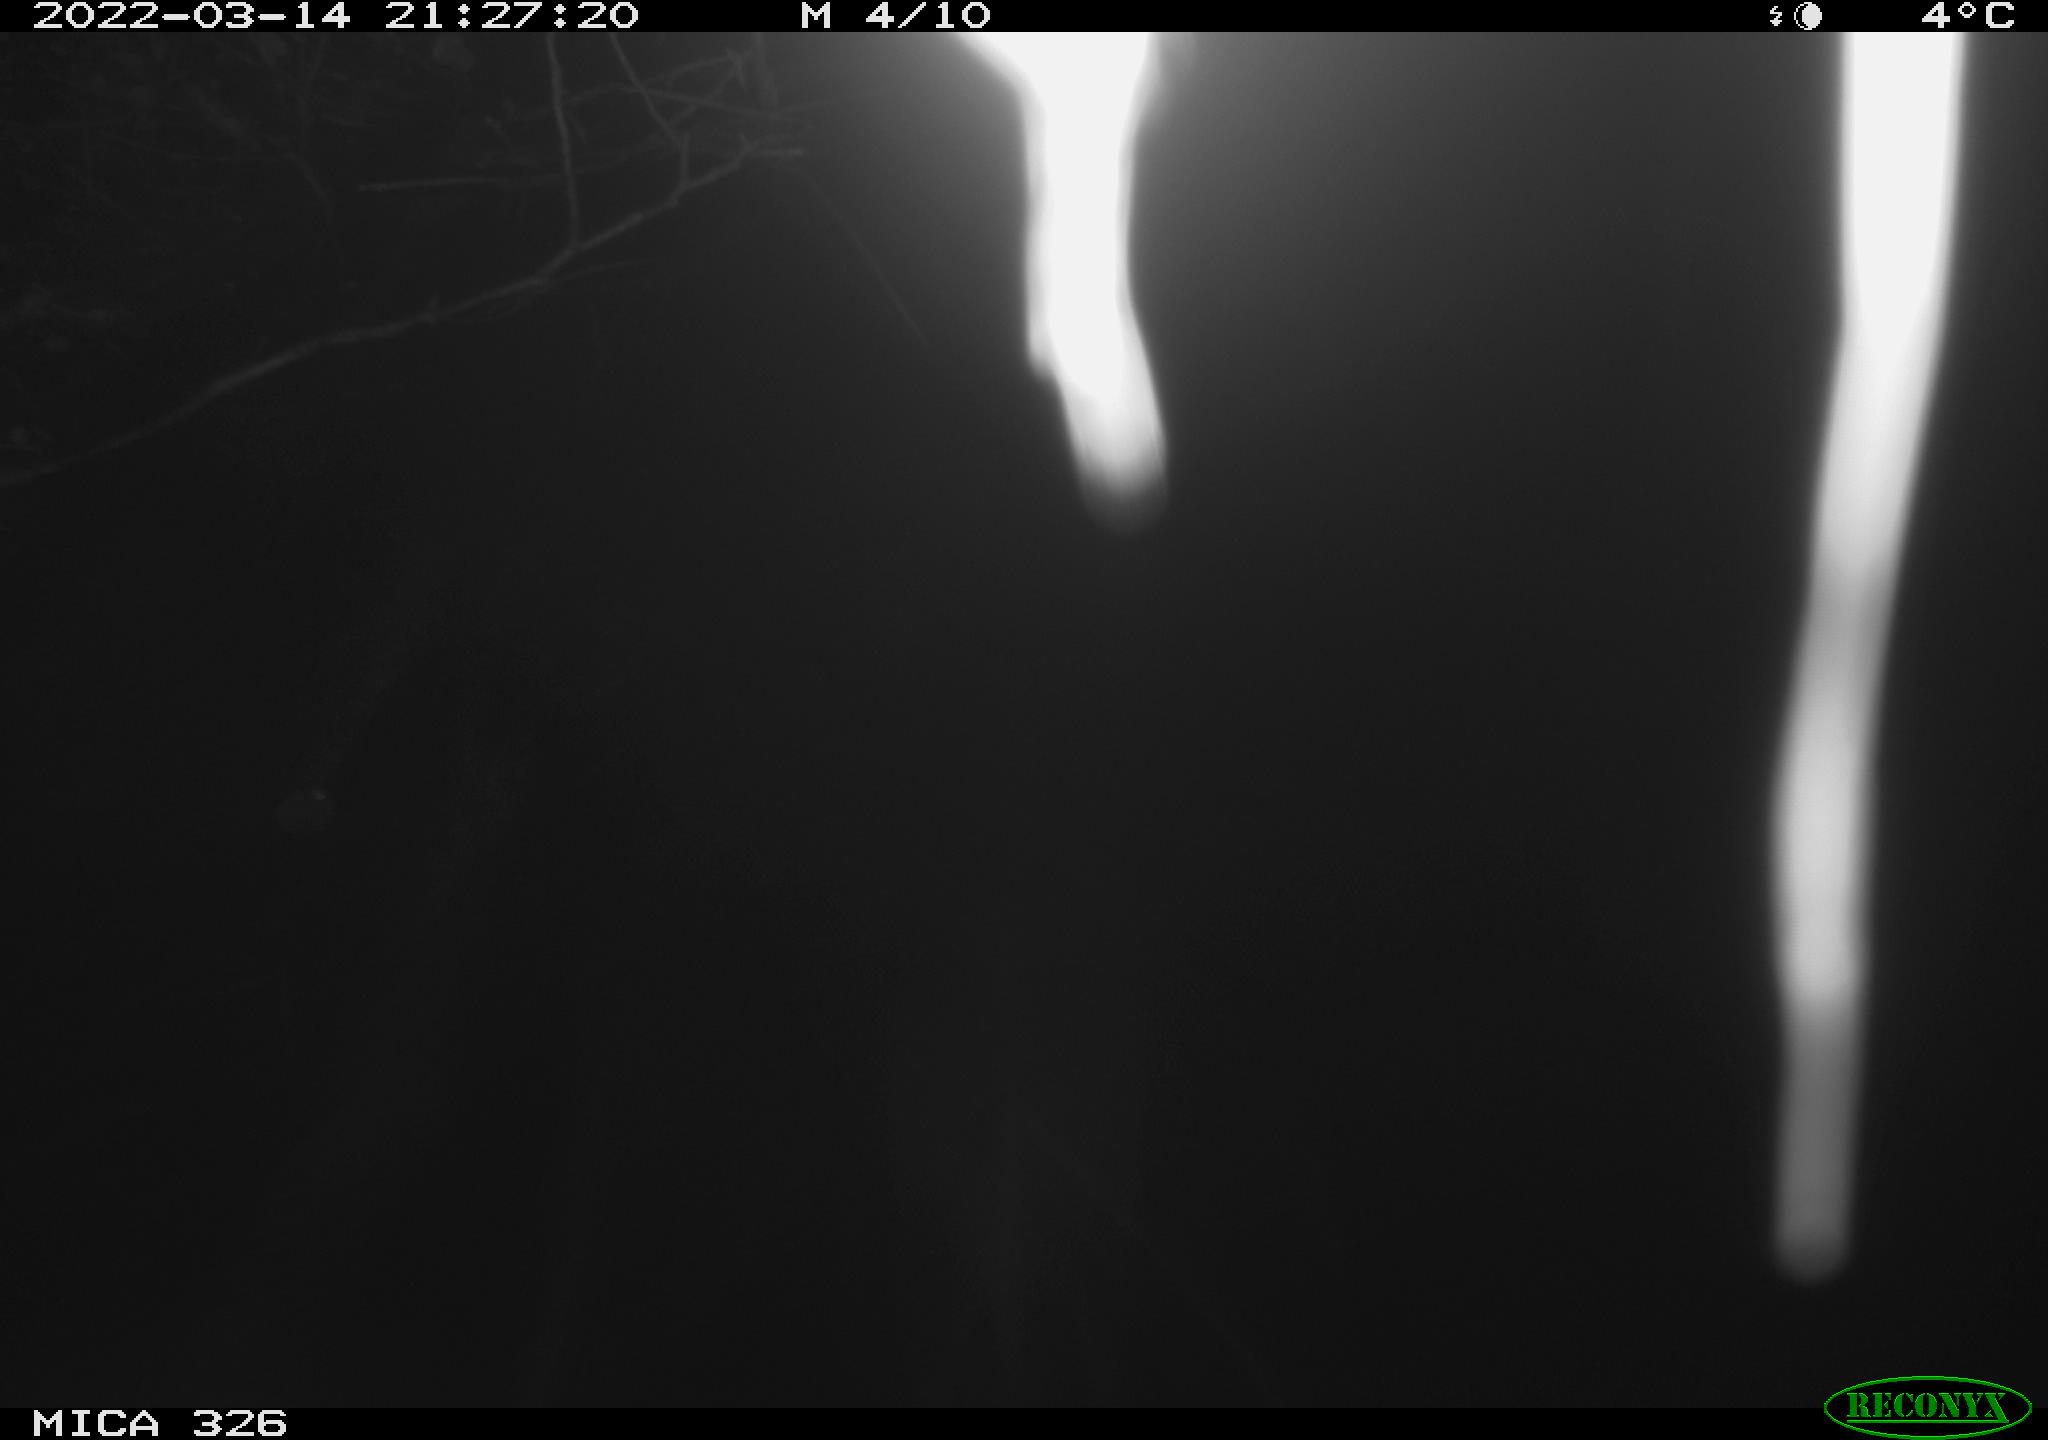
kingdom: Animalia
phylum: Chordata
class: Mammalia
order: Rodentia
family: Muridae
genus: Rattus
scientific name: Rattus norvegicus
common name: Brown rat
